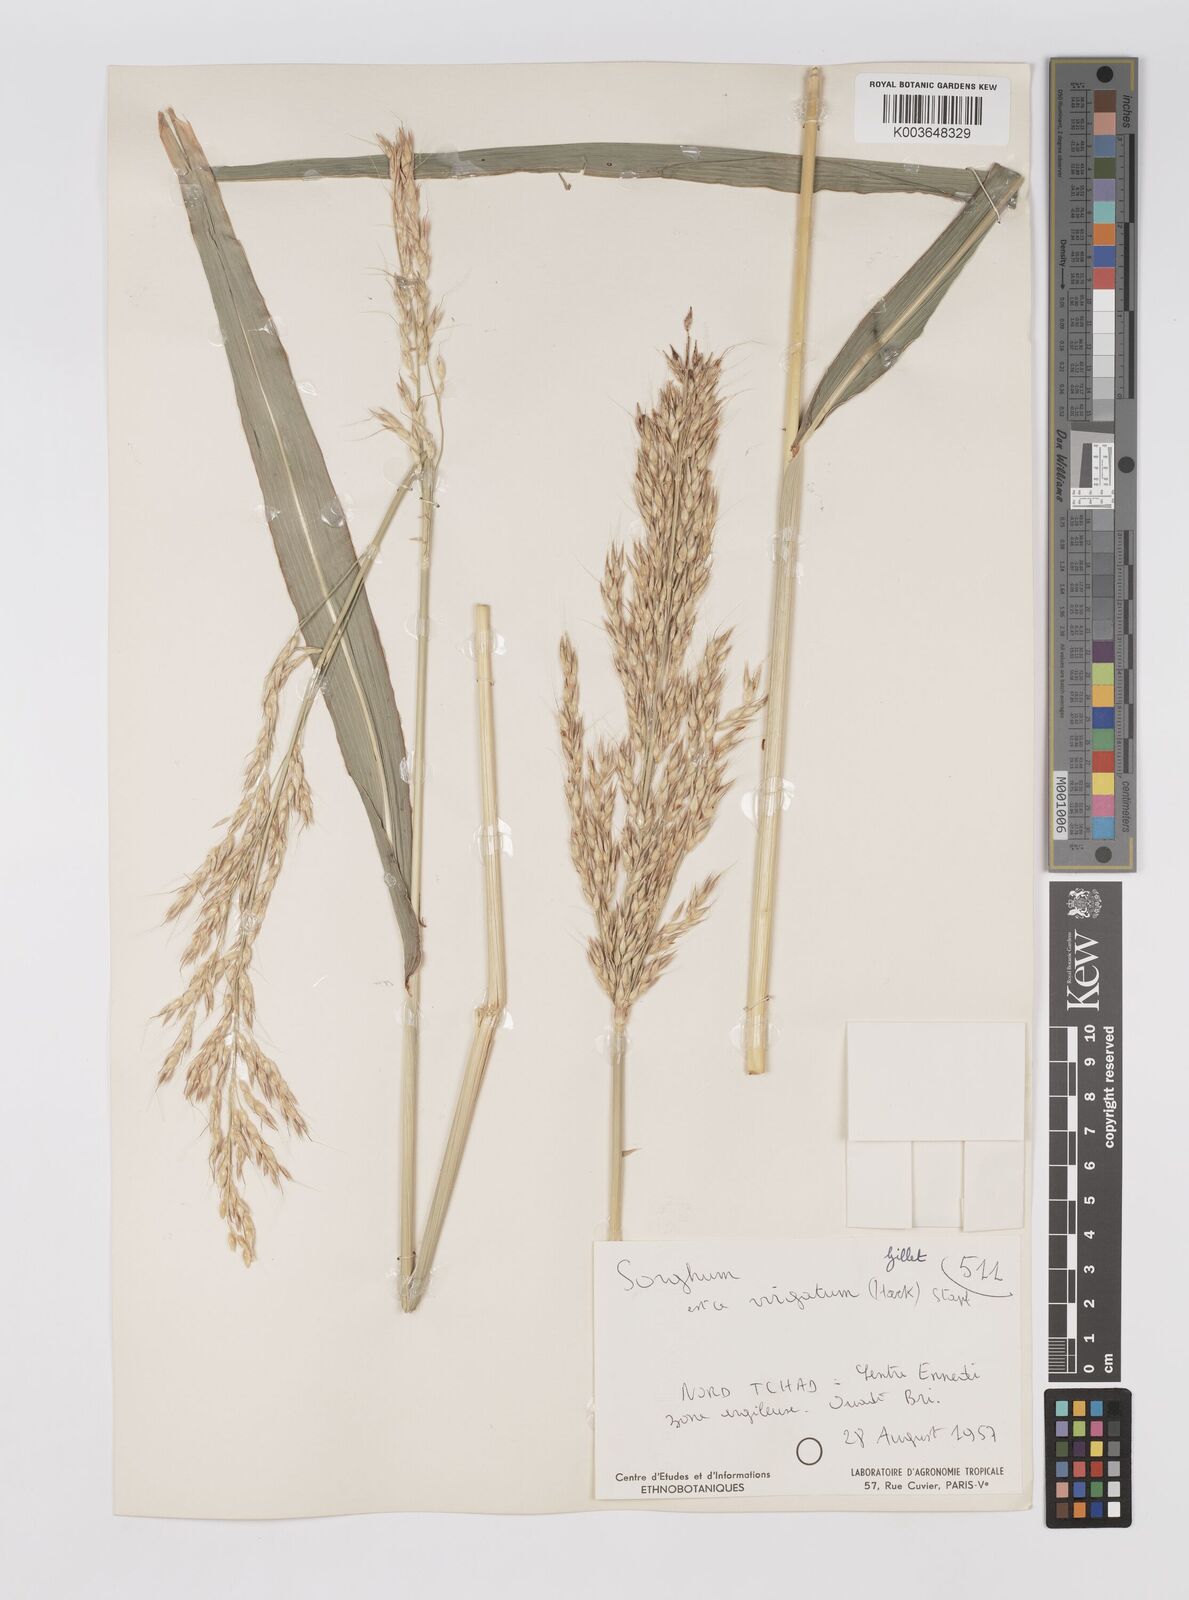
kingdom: Plantae
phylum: Tracheophyta
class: Liliopsida
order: Poales
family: Poaceae
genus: Sorghum
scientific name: Sorghum arundinaceum
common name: Sorghum
